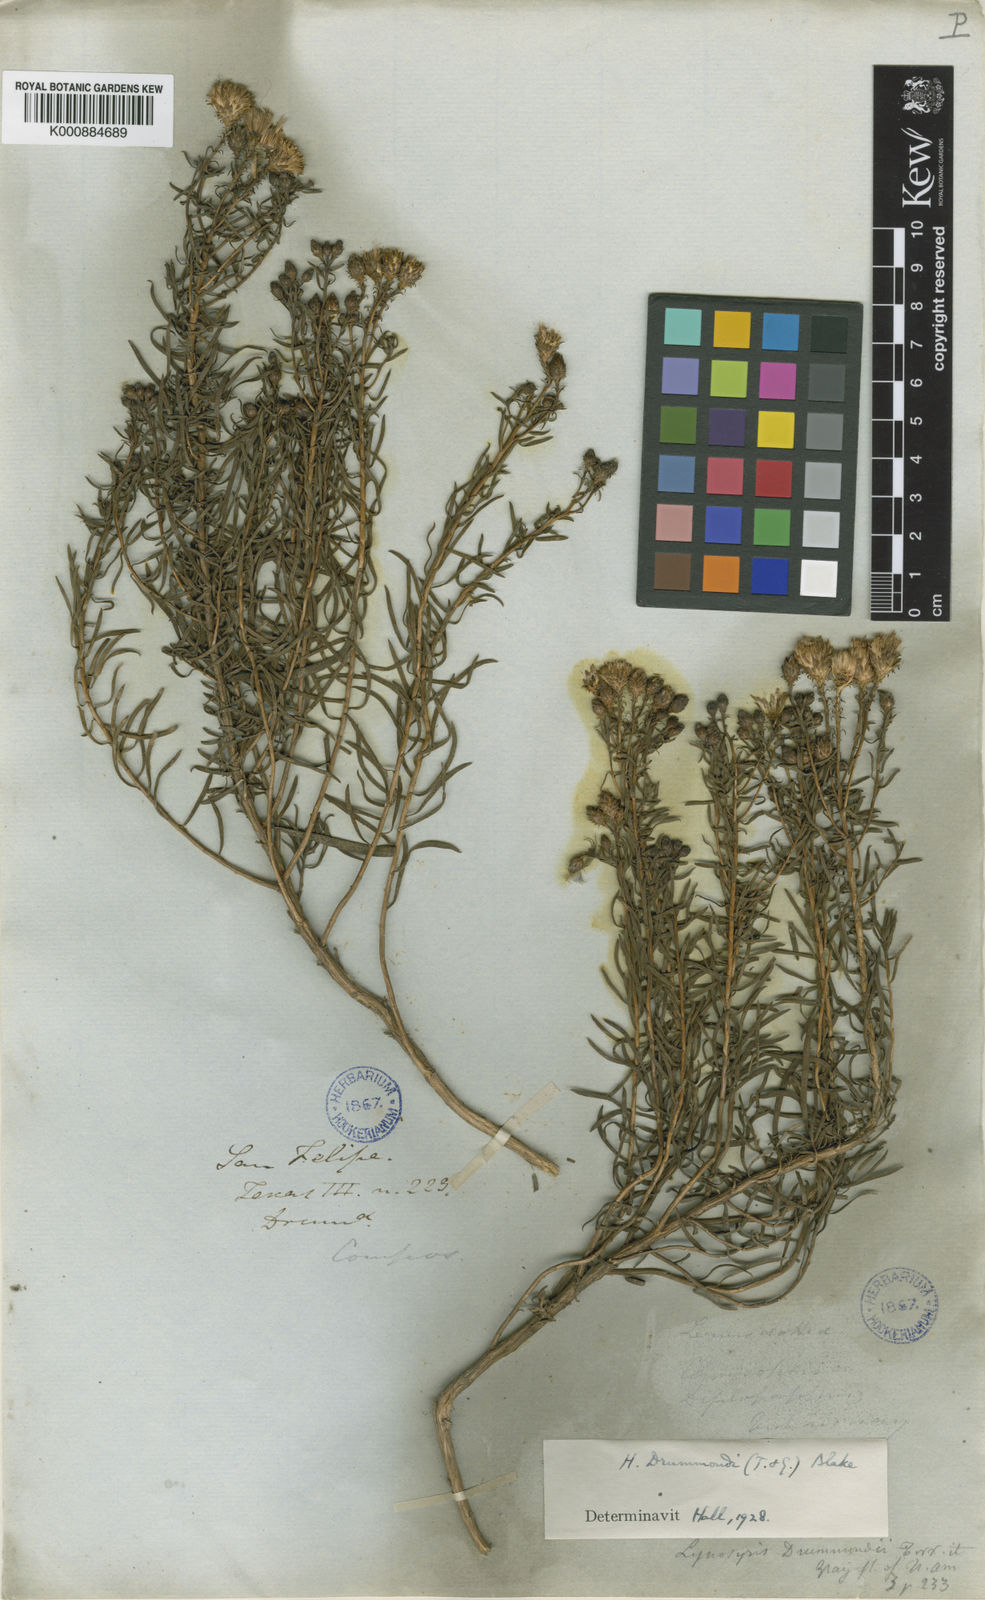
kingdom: Plantae
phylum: Tracheophyta
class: Magnoliopsida
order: Asterales
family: Asteraceae
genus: Isocoma
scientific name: Isocoma drummondii
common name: Drummond's jimmyweed
